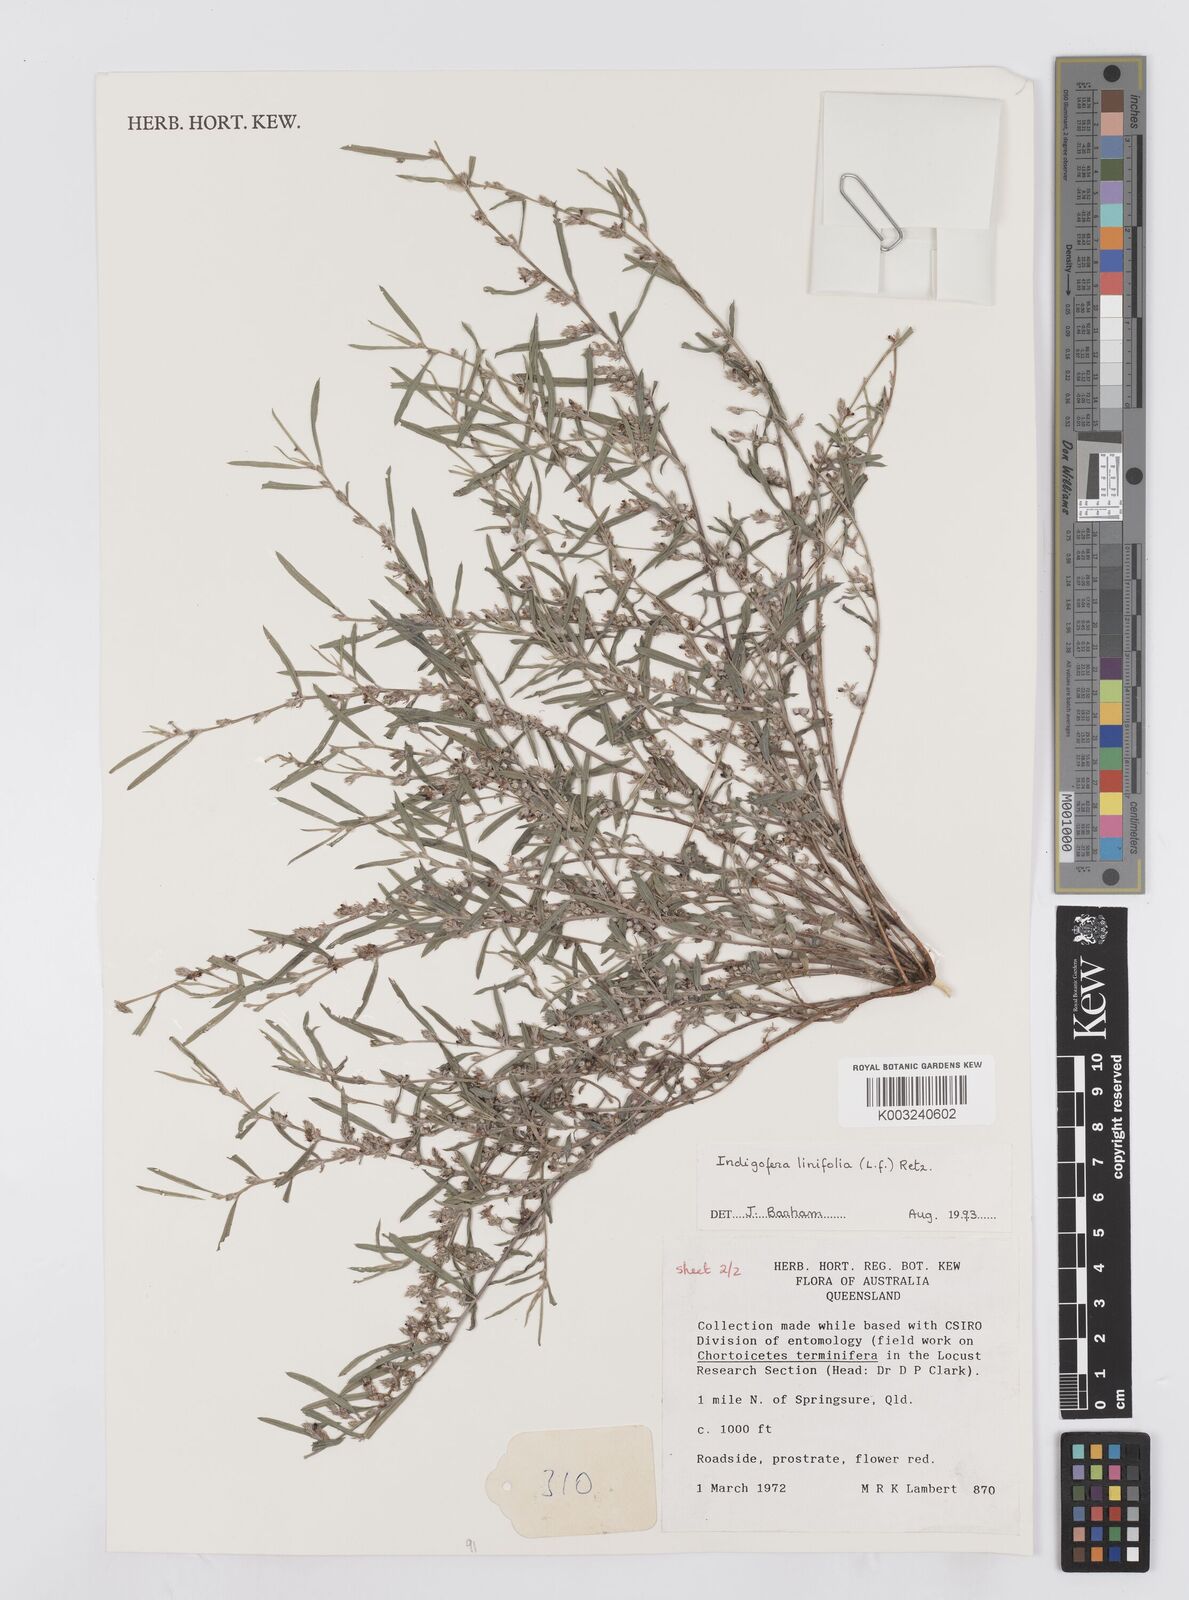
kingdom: Plantae
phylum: Tracheophyta
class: Magnoliopsida
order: Fabales
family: Fabaceae
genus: Indigofera
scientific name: Indigofera linifolia
